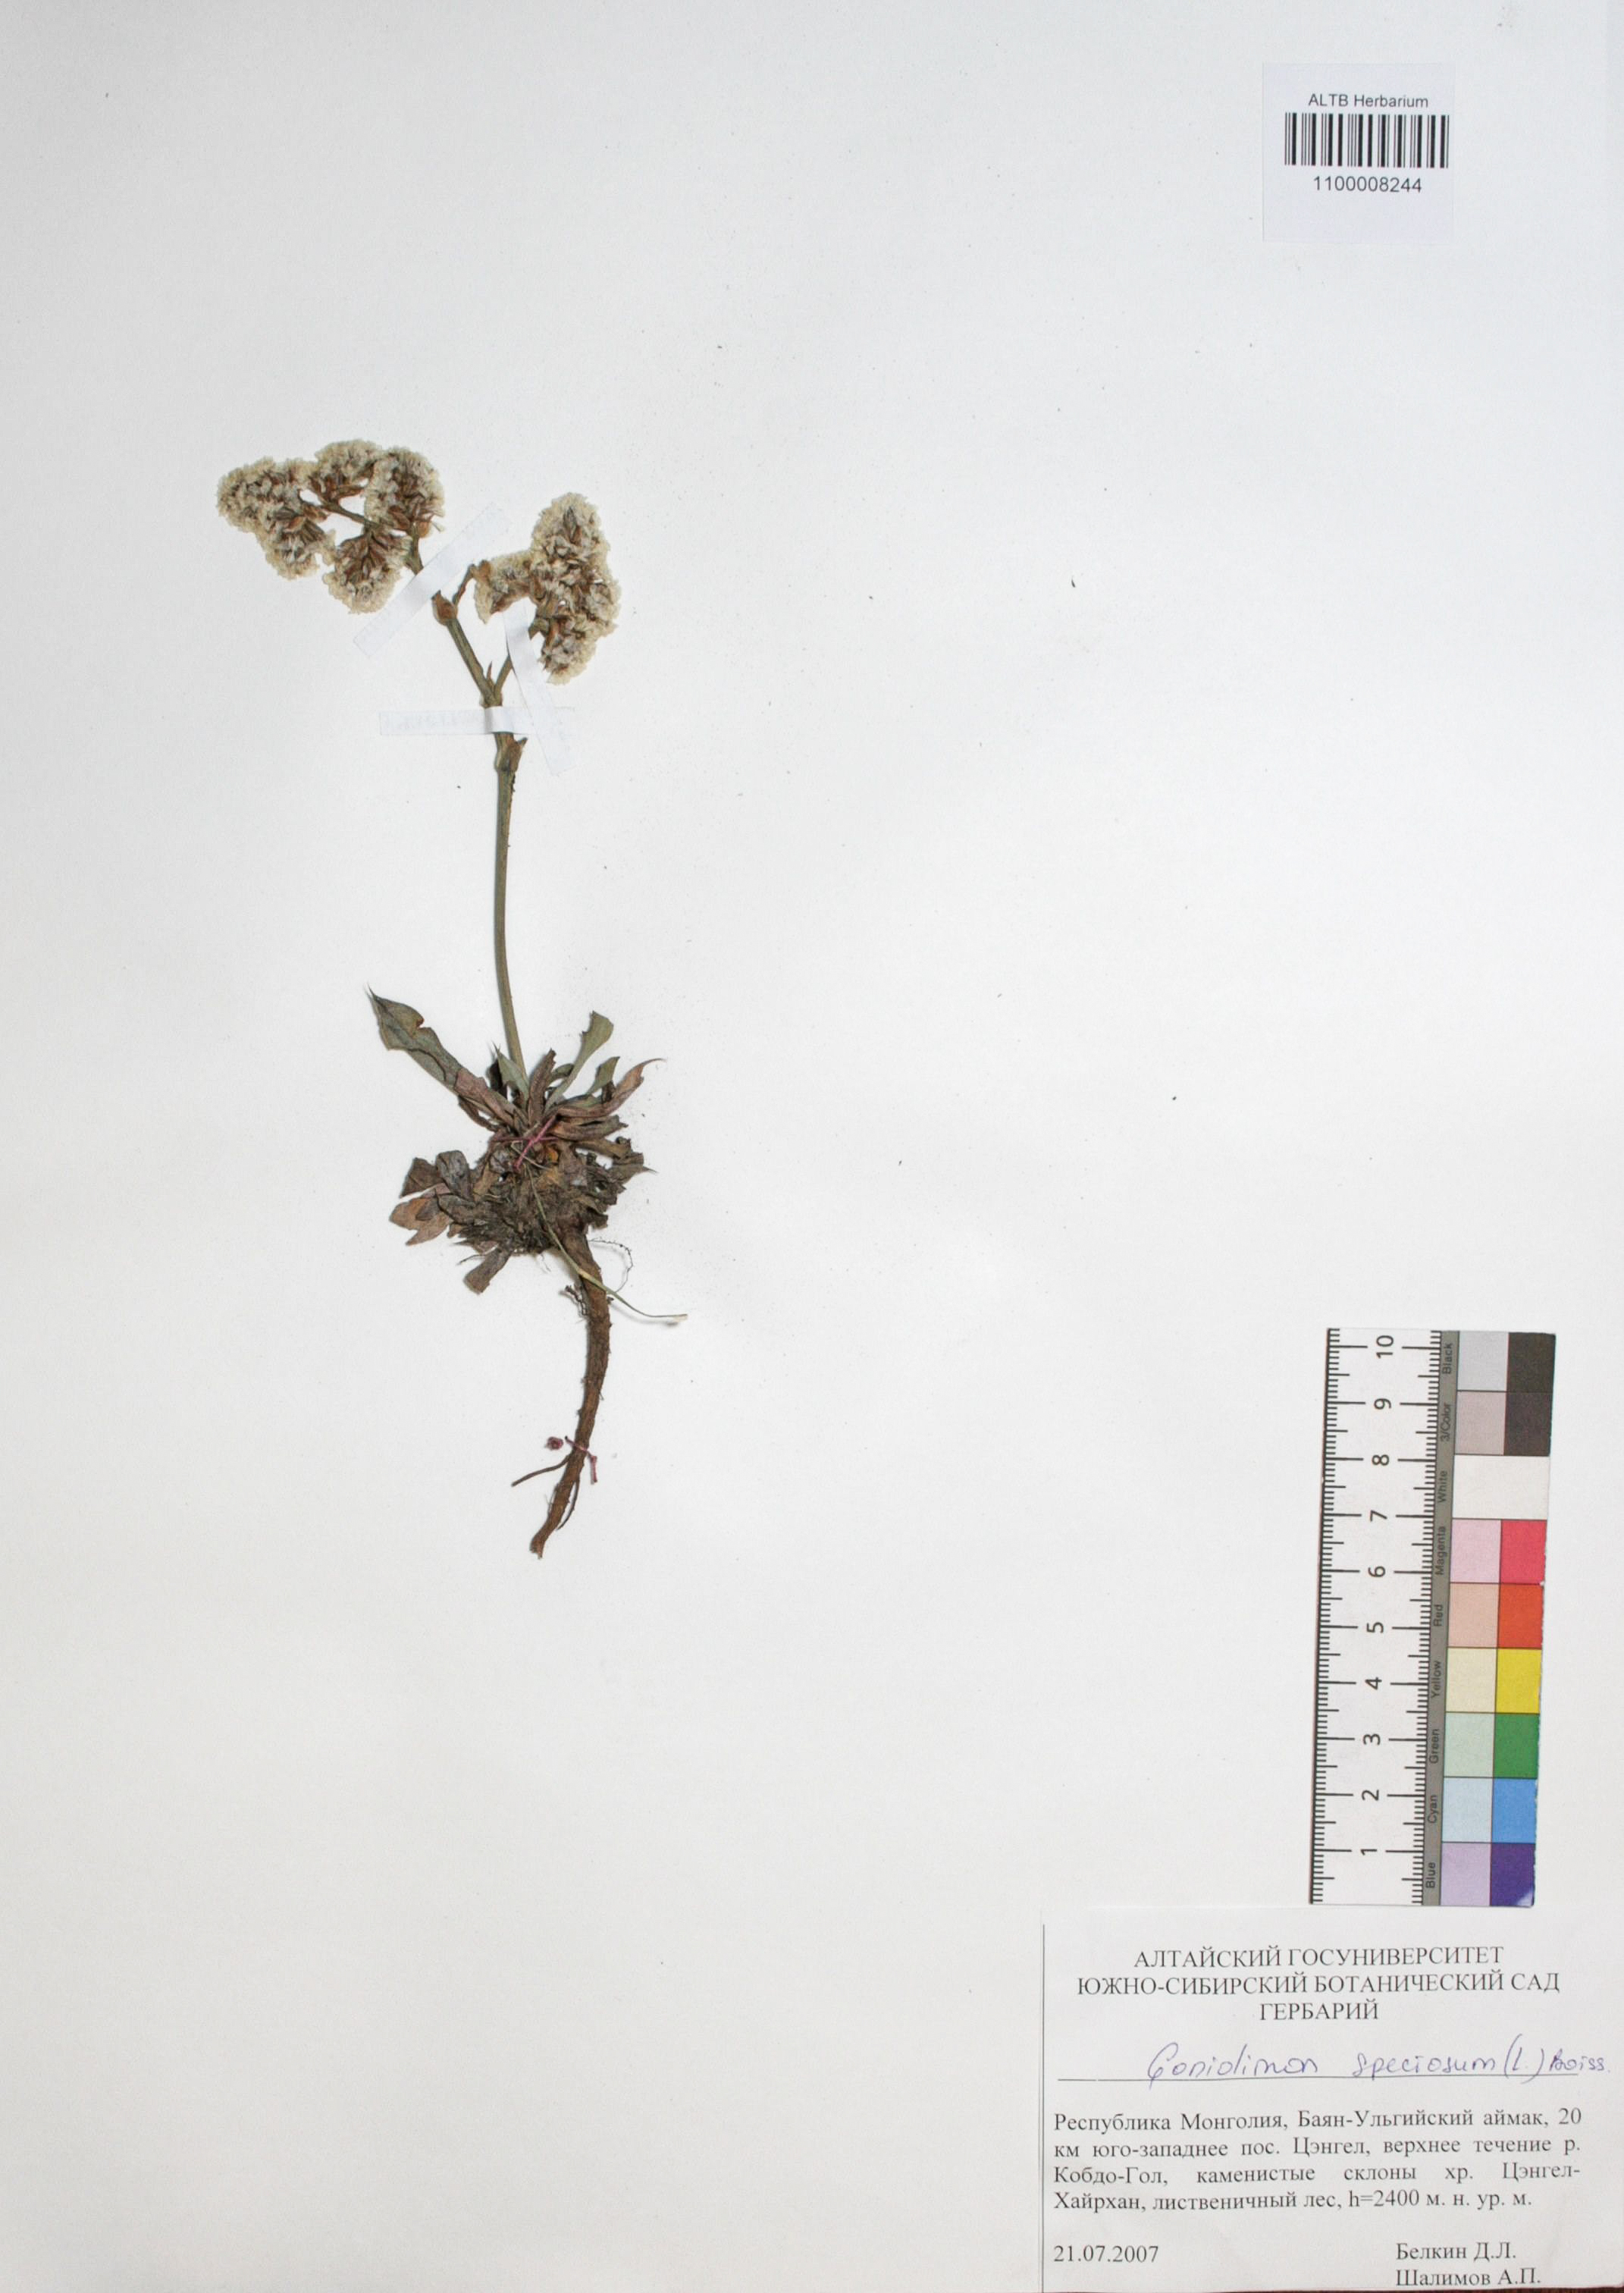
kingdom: Plantae
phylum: Tracheophyta
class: Magnoliopsida
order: Caryophyllales
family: Plumbaginaceae
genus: Goniolimon
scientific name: Goniolimon speciosum
